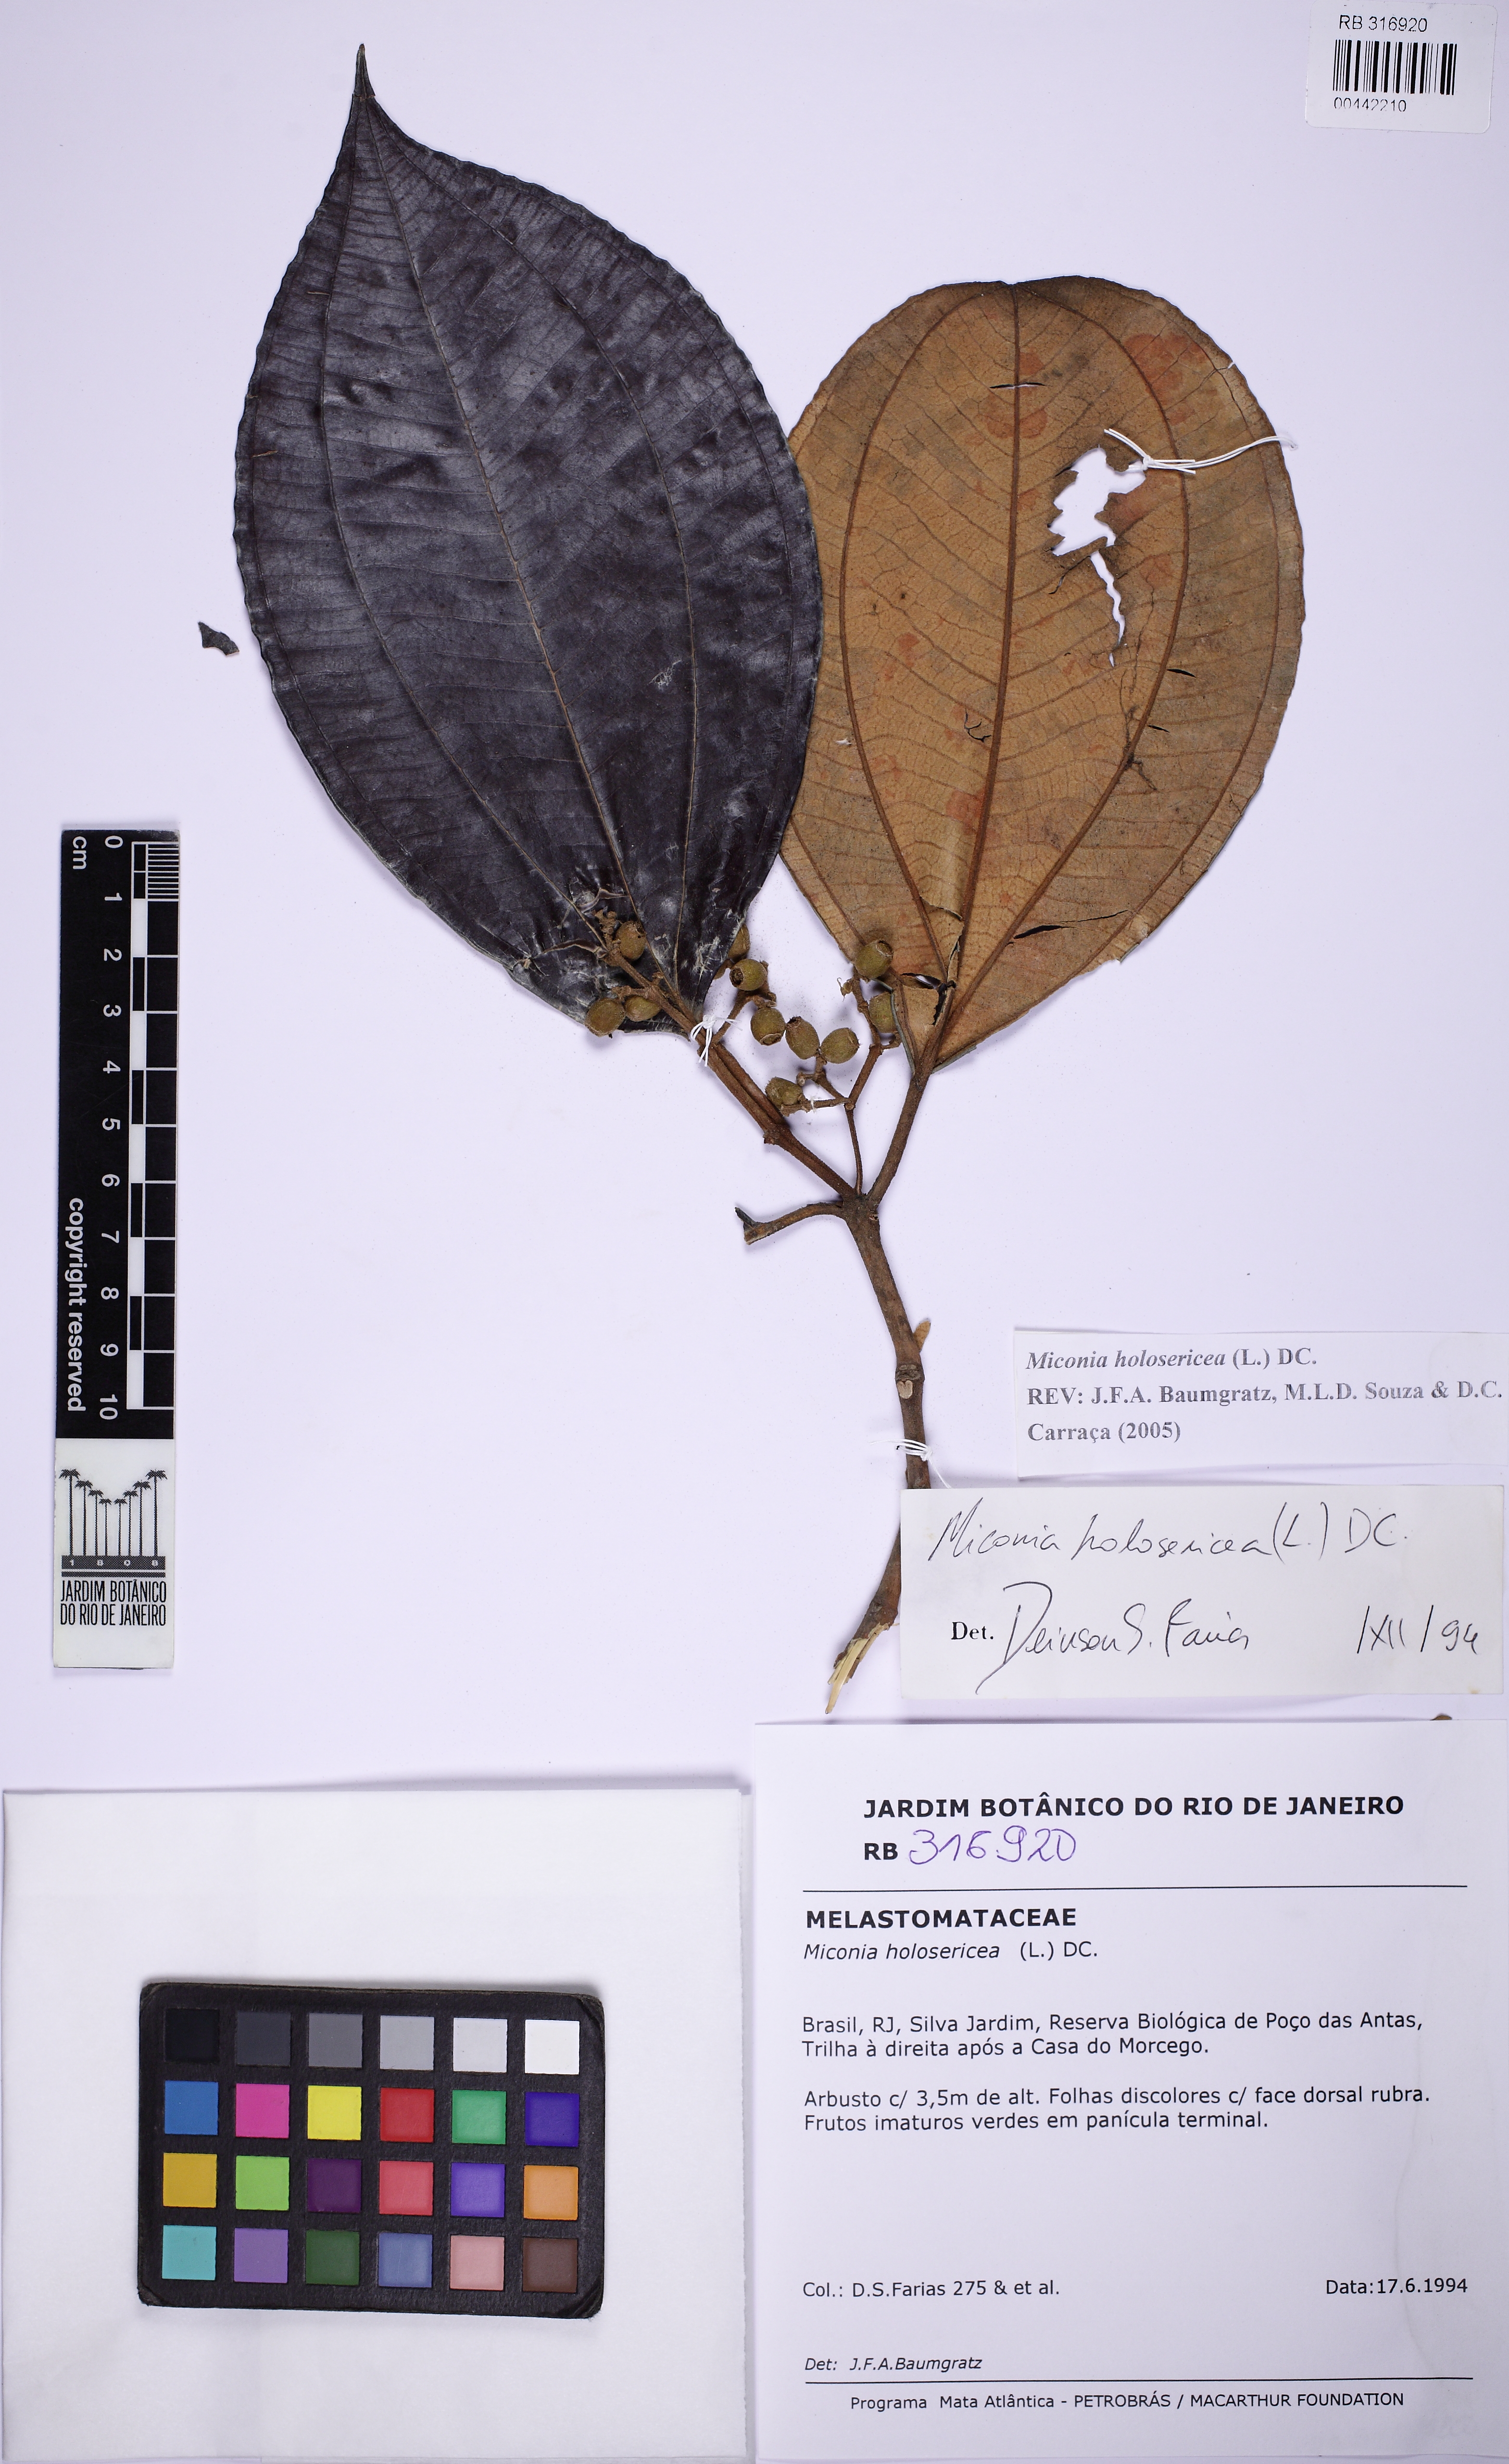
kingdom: Plantae
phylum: Tracheophyta
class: Magnoliopsida
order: Myrtales
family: Melastomataceae
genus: Miconia
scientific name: Miconia holosericea
